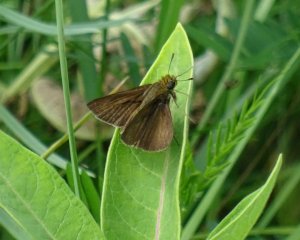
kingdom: Animalia
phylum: Arthropoda
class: Insecta
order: Lepidoptera
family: Hesperiidae
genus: Euphyes
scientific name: Euphyes vestris
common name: Dun Skipper
